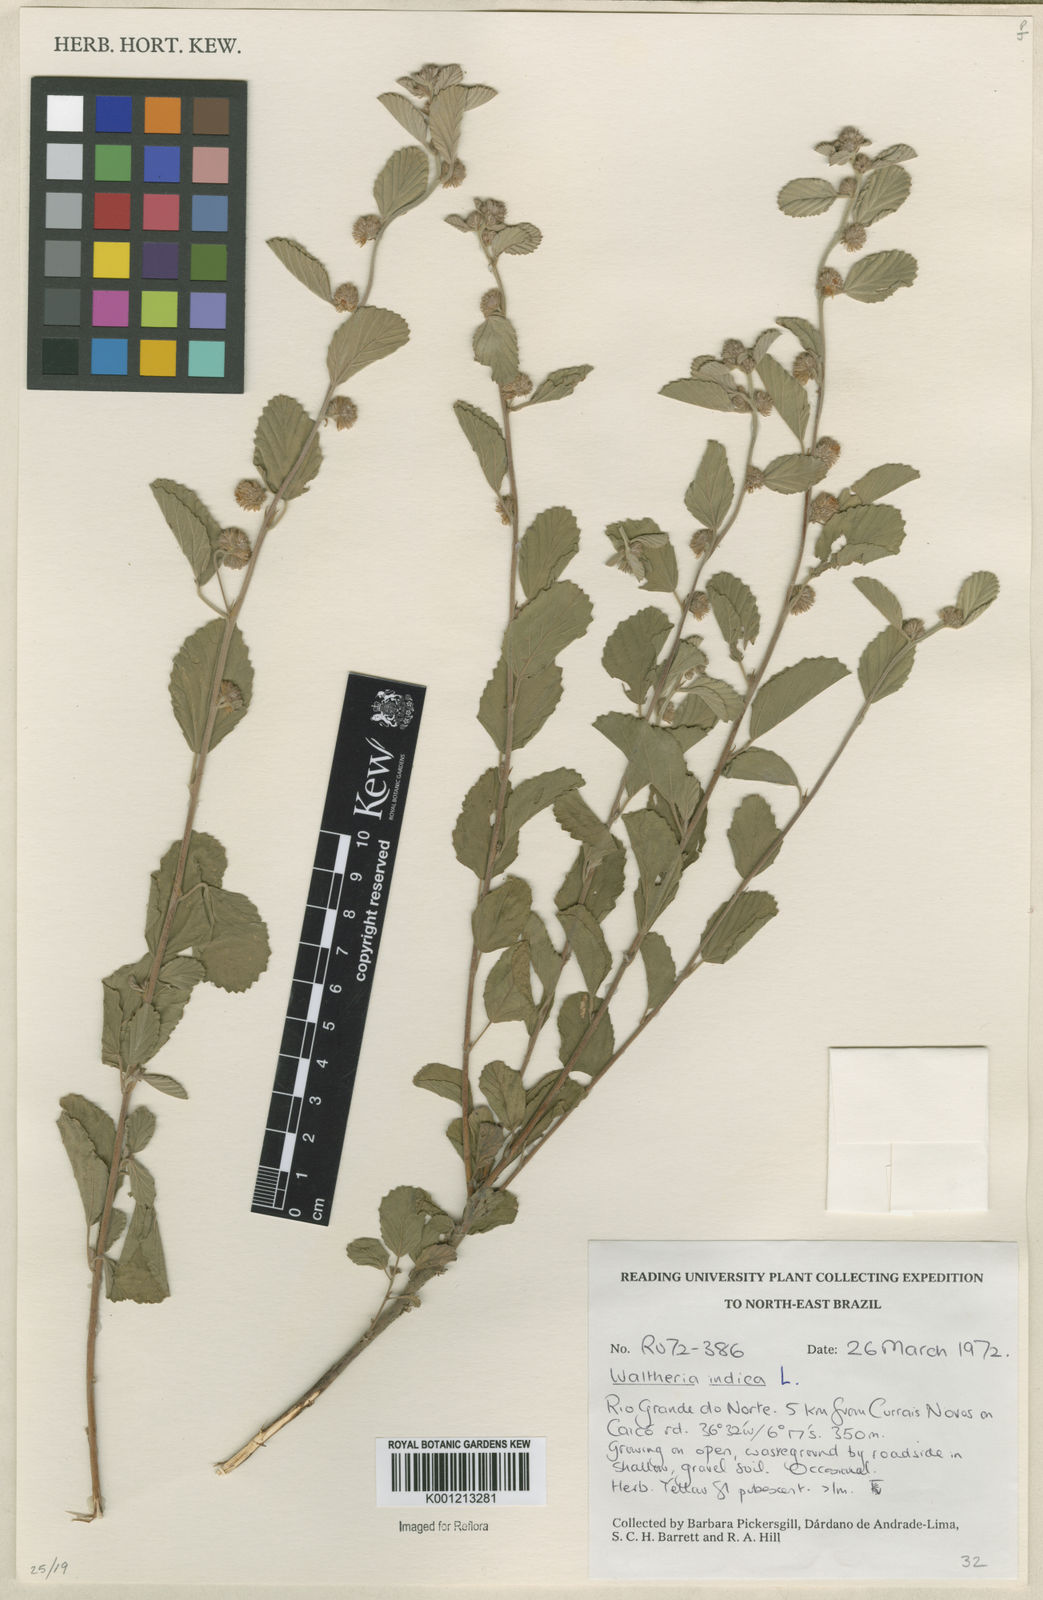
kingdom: Plantae
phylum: Tracheophyta
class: Magnoliopsida
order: Malvales
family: Malvaceae
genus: Waltheria
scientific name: Waltheria indica
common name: Leather-coat
